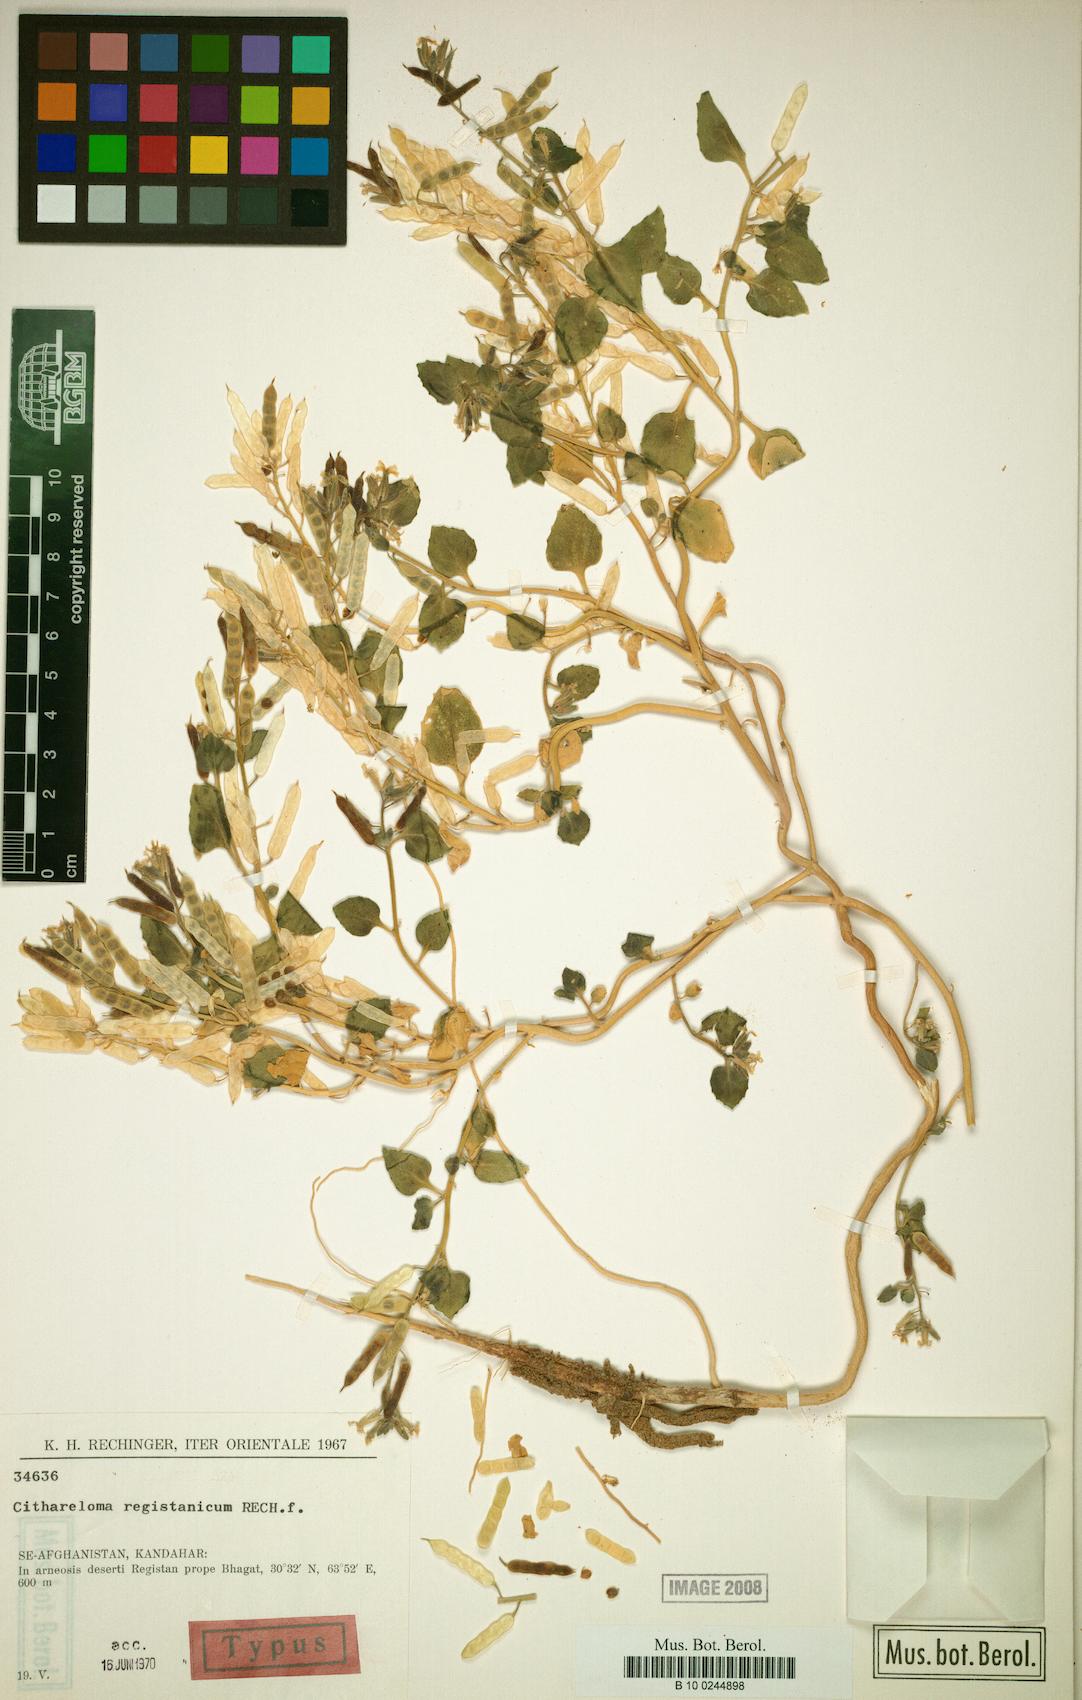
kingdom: Plantae
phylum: Tracheophyta
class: Magnoliopsida
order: Brassicales
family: Brassicaceae
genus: Cithareloma
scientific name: Cithareloma lehmannii
